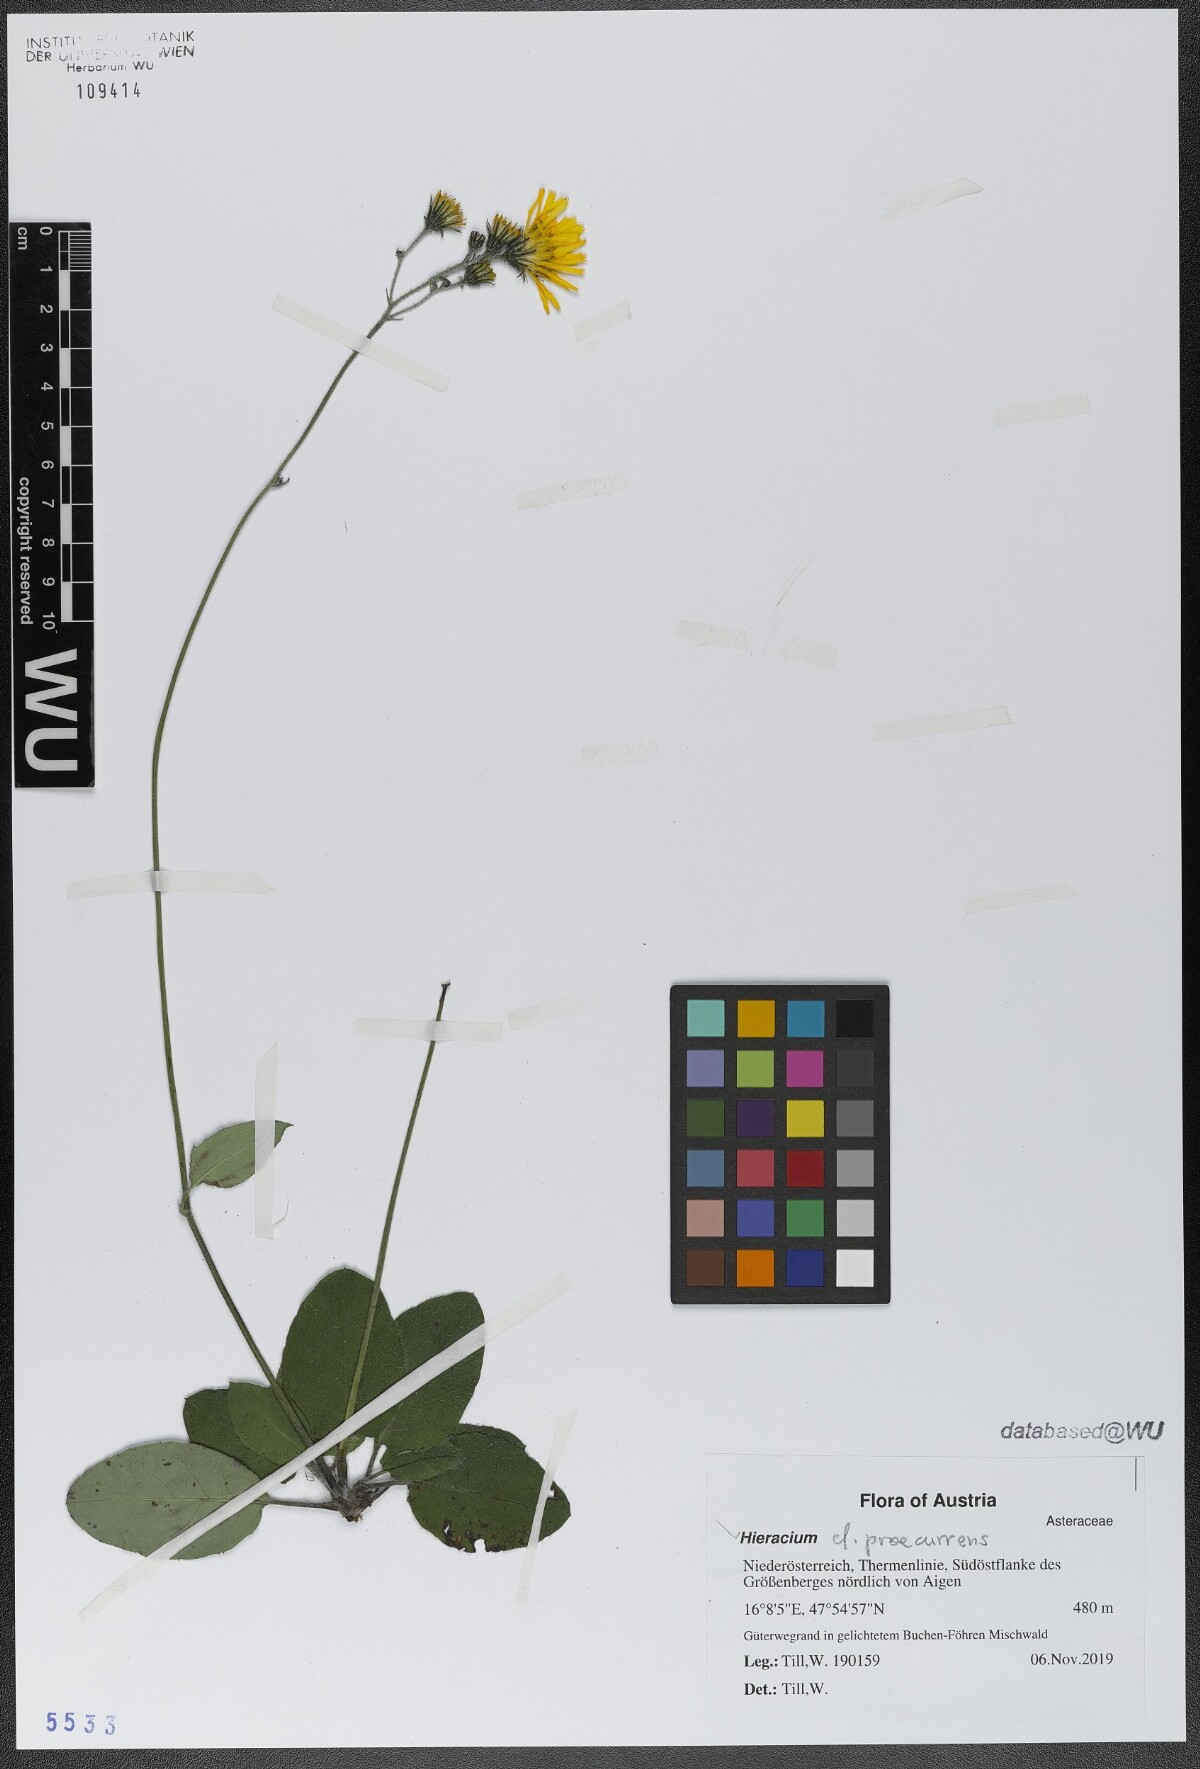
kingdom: Plantae
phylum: Tracheophyta
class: Magnoliopsida
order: Asterales
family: Asteraceae
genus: Hieracium
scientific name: Hieracium rotundatum
